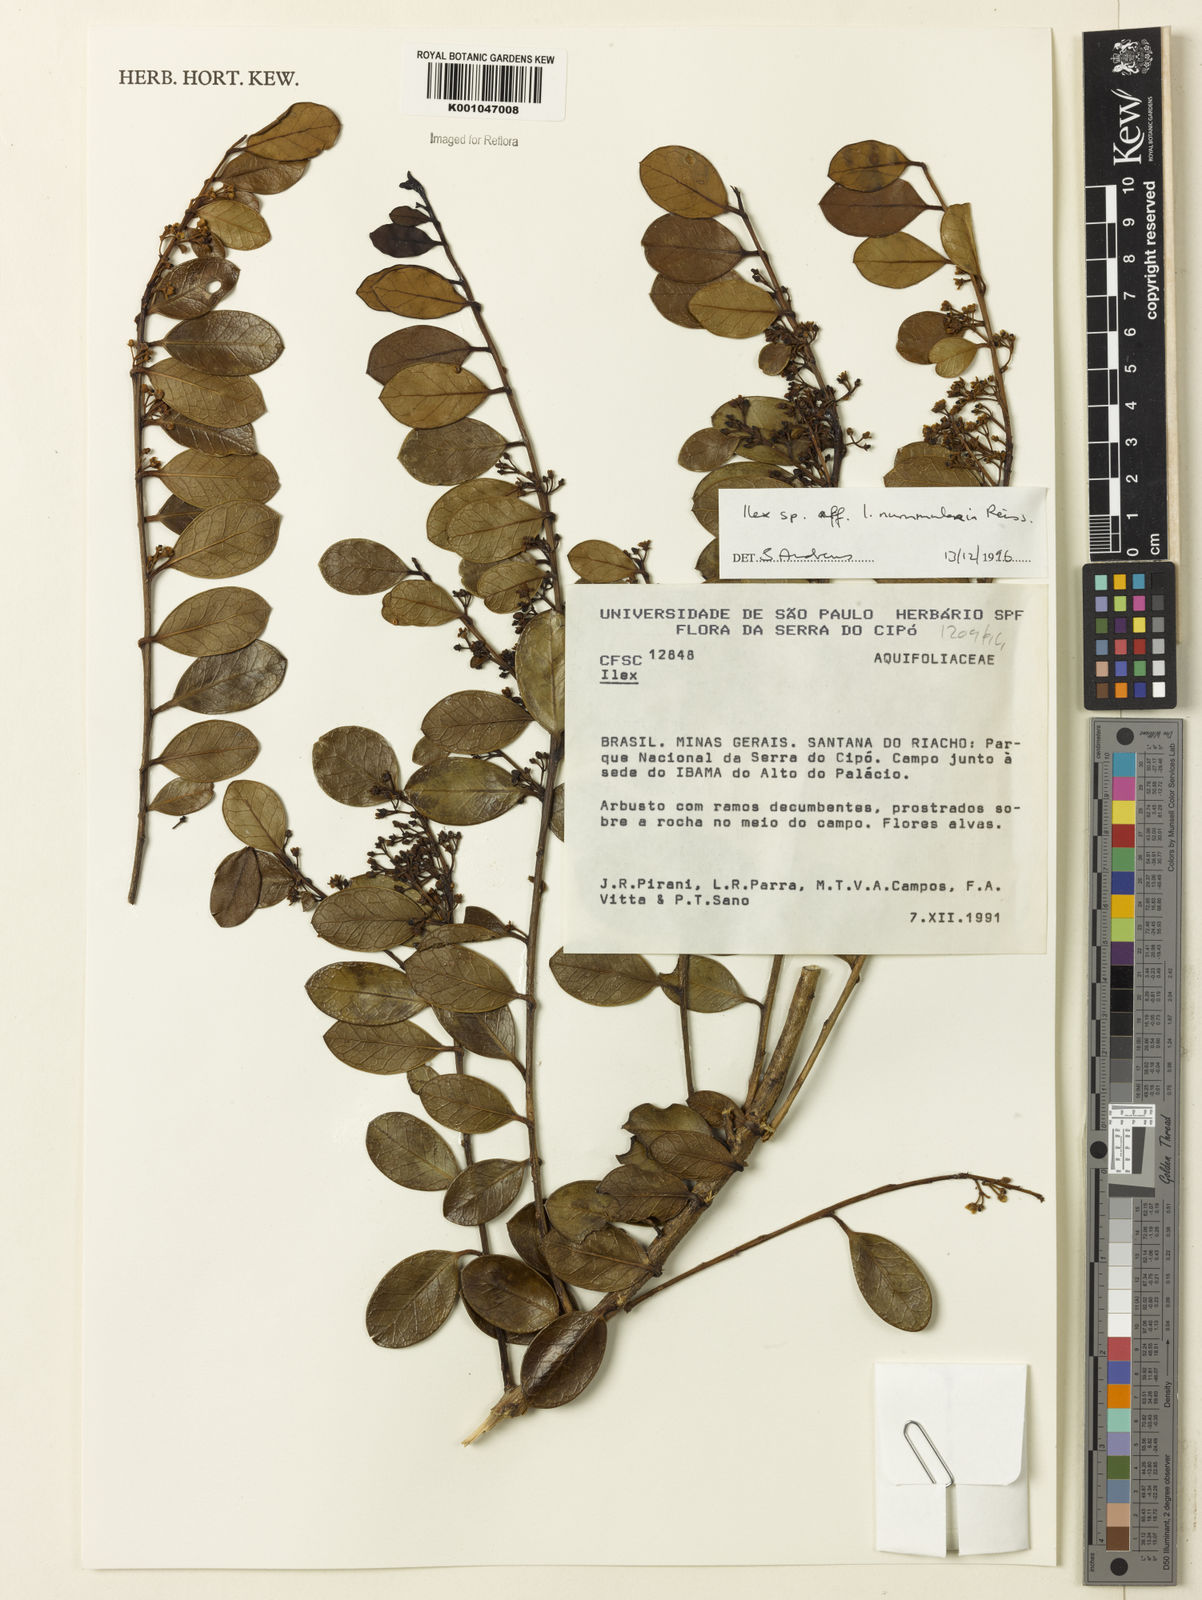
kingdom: Plantae
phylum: Tracheophyta
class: Magnoliopsida
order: Aquifoliales
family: Aquifoliaceae
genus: Ilex
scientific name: Ilex nummularia
